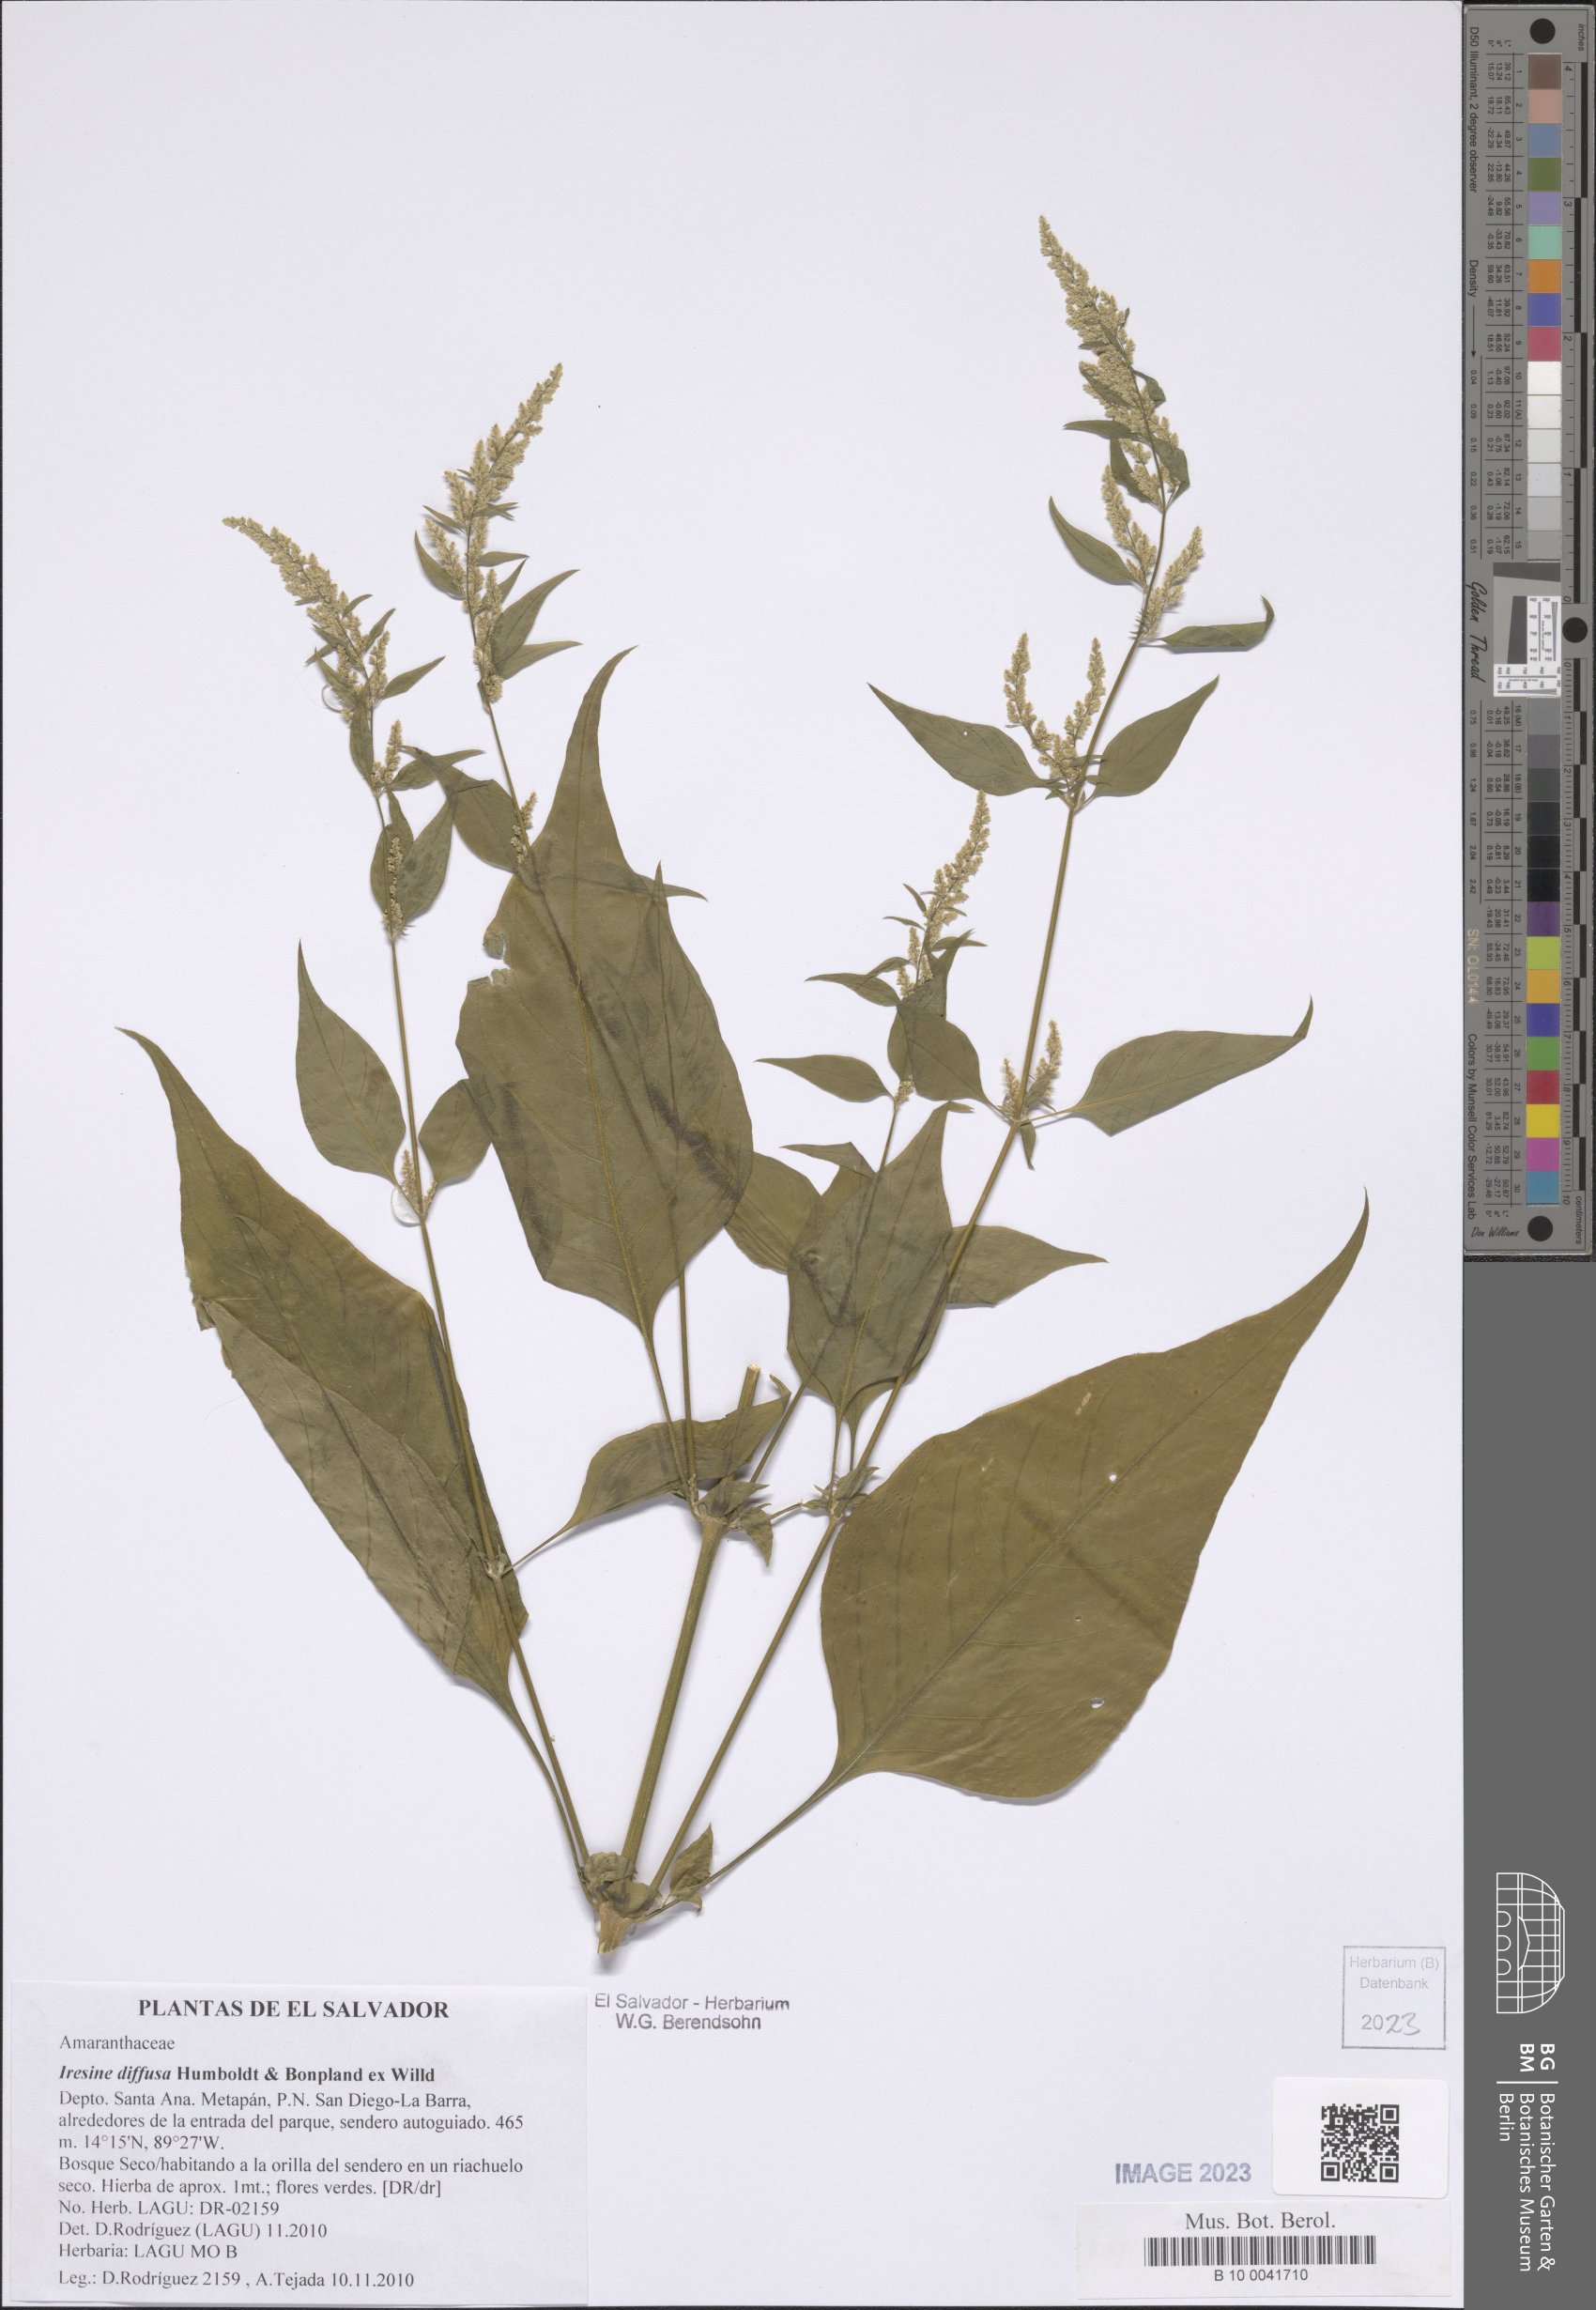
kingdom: Plantae
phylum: Tracheophyta
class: Magnoliopsida
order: Caryophyllales
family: Amaranthaceae
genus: Iresine
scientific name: Iresine diffusa
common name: Juba's-bush
